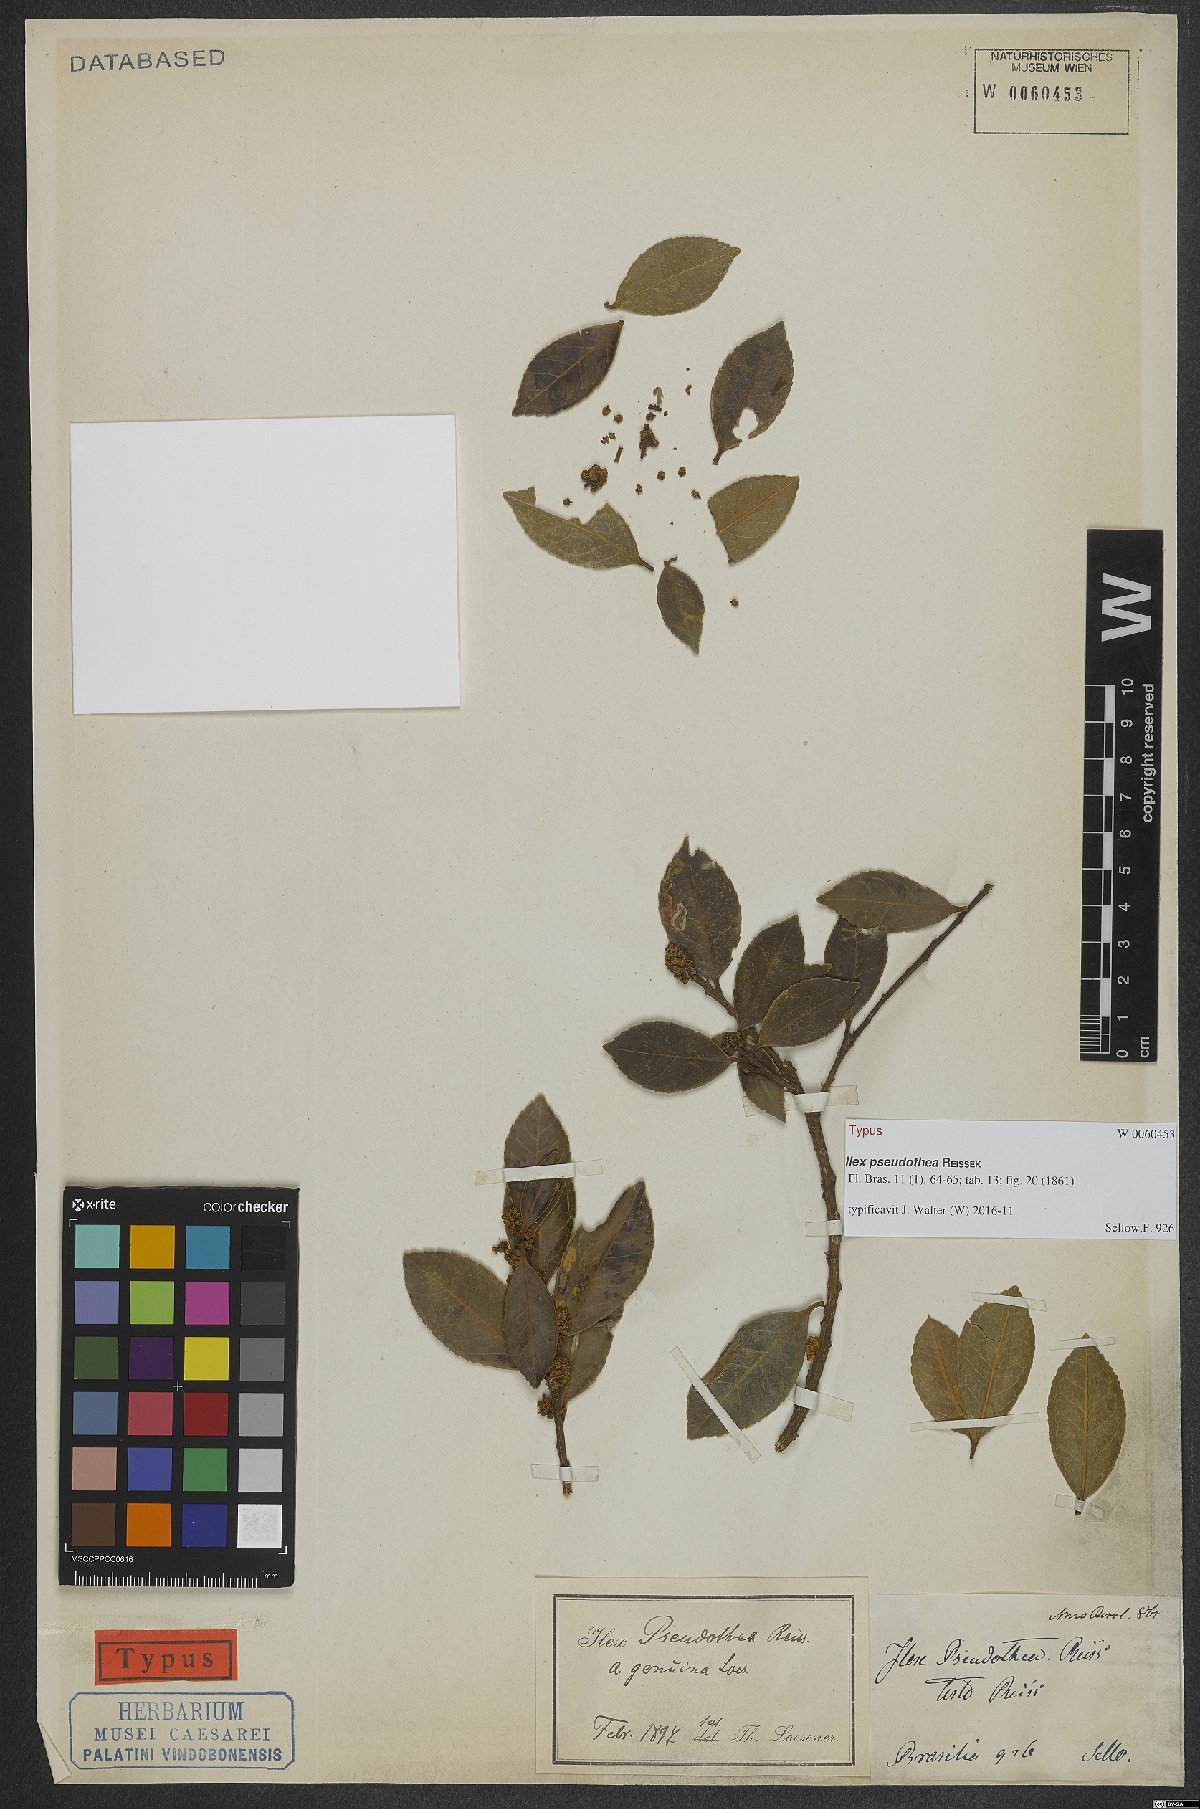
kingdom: Plantae
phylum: Tracheophyta
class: Magnoliopsida
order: Aquifoliales
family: Aquifoliaceae
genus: Ilex
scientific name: Ilex pseudothea
